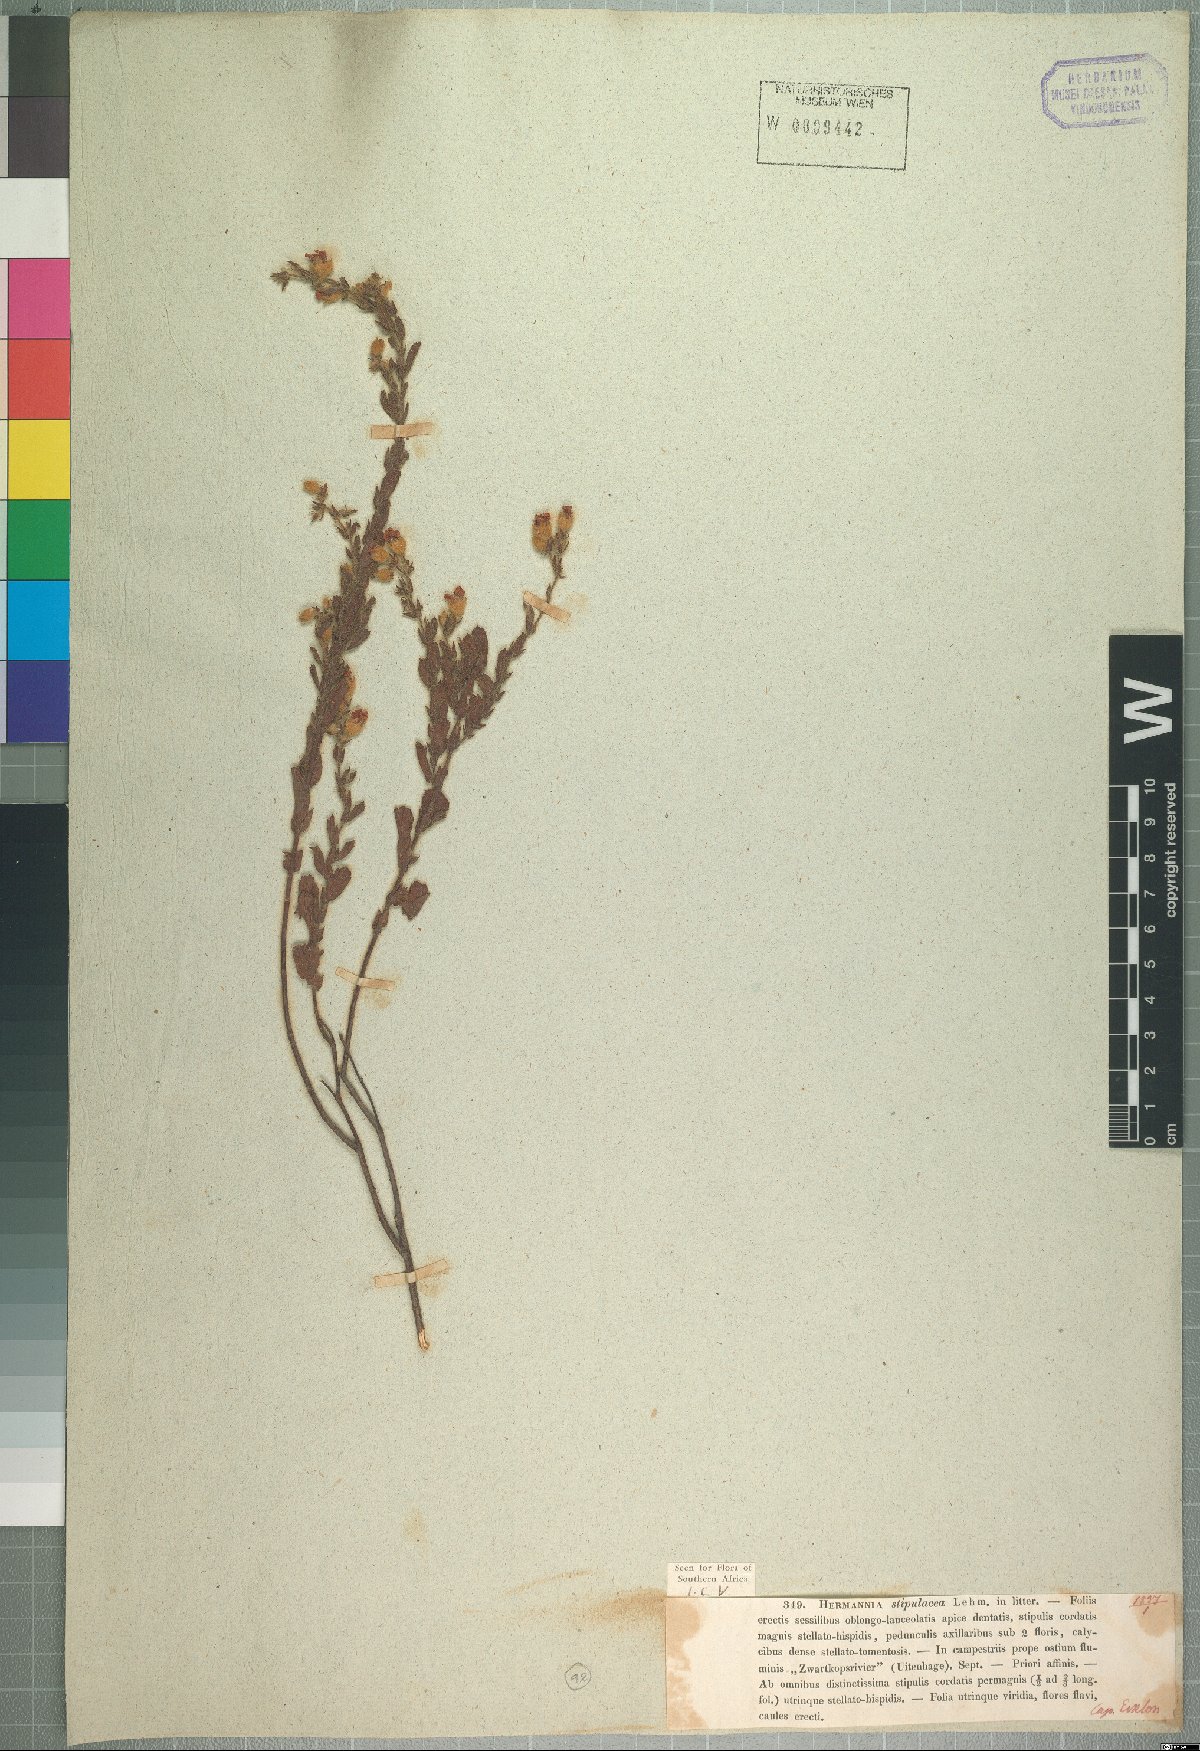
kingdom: Plantae
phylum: Tracheophyta
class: Magnoliopsida
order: Malvales
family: Malvaceae
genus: Hermannia
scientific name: Hermannia stipulacea
